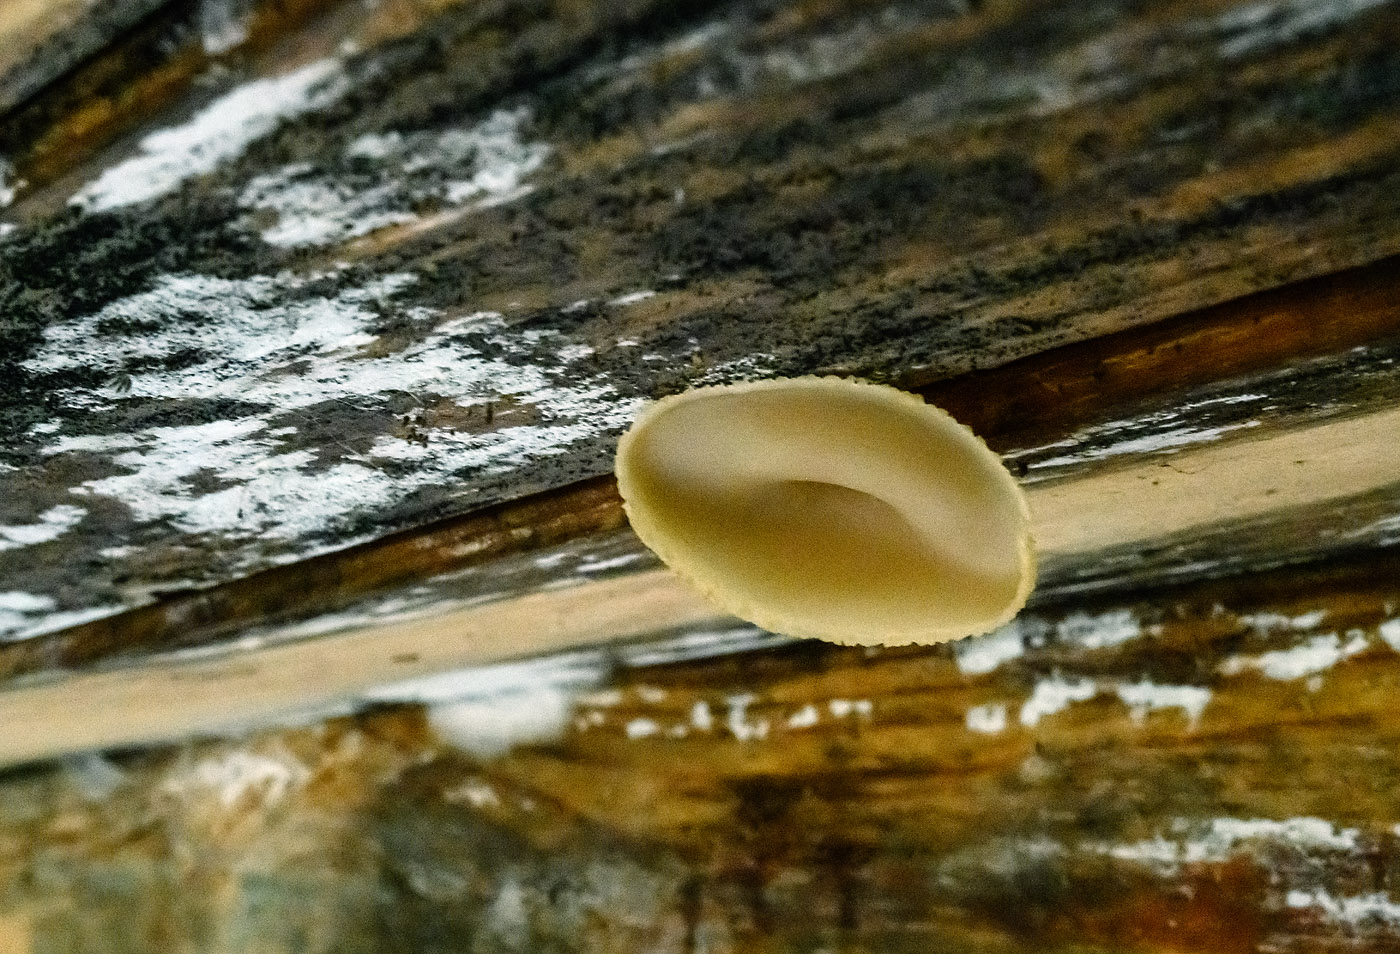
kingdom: Fungi
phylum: Ascomycota
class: Pezizomycetes
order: Pezizales
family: Pezizaceae
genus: Peziza
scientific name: Peziza varia
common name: Ved-bægersvamp
